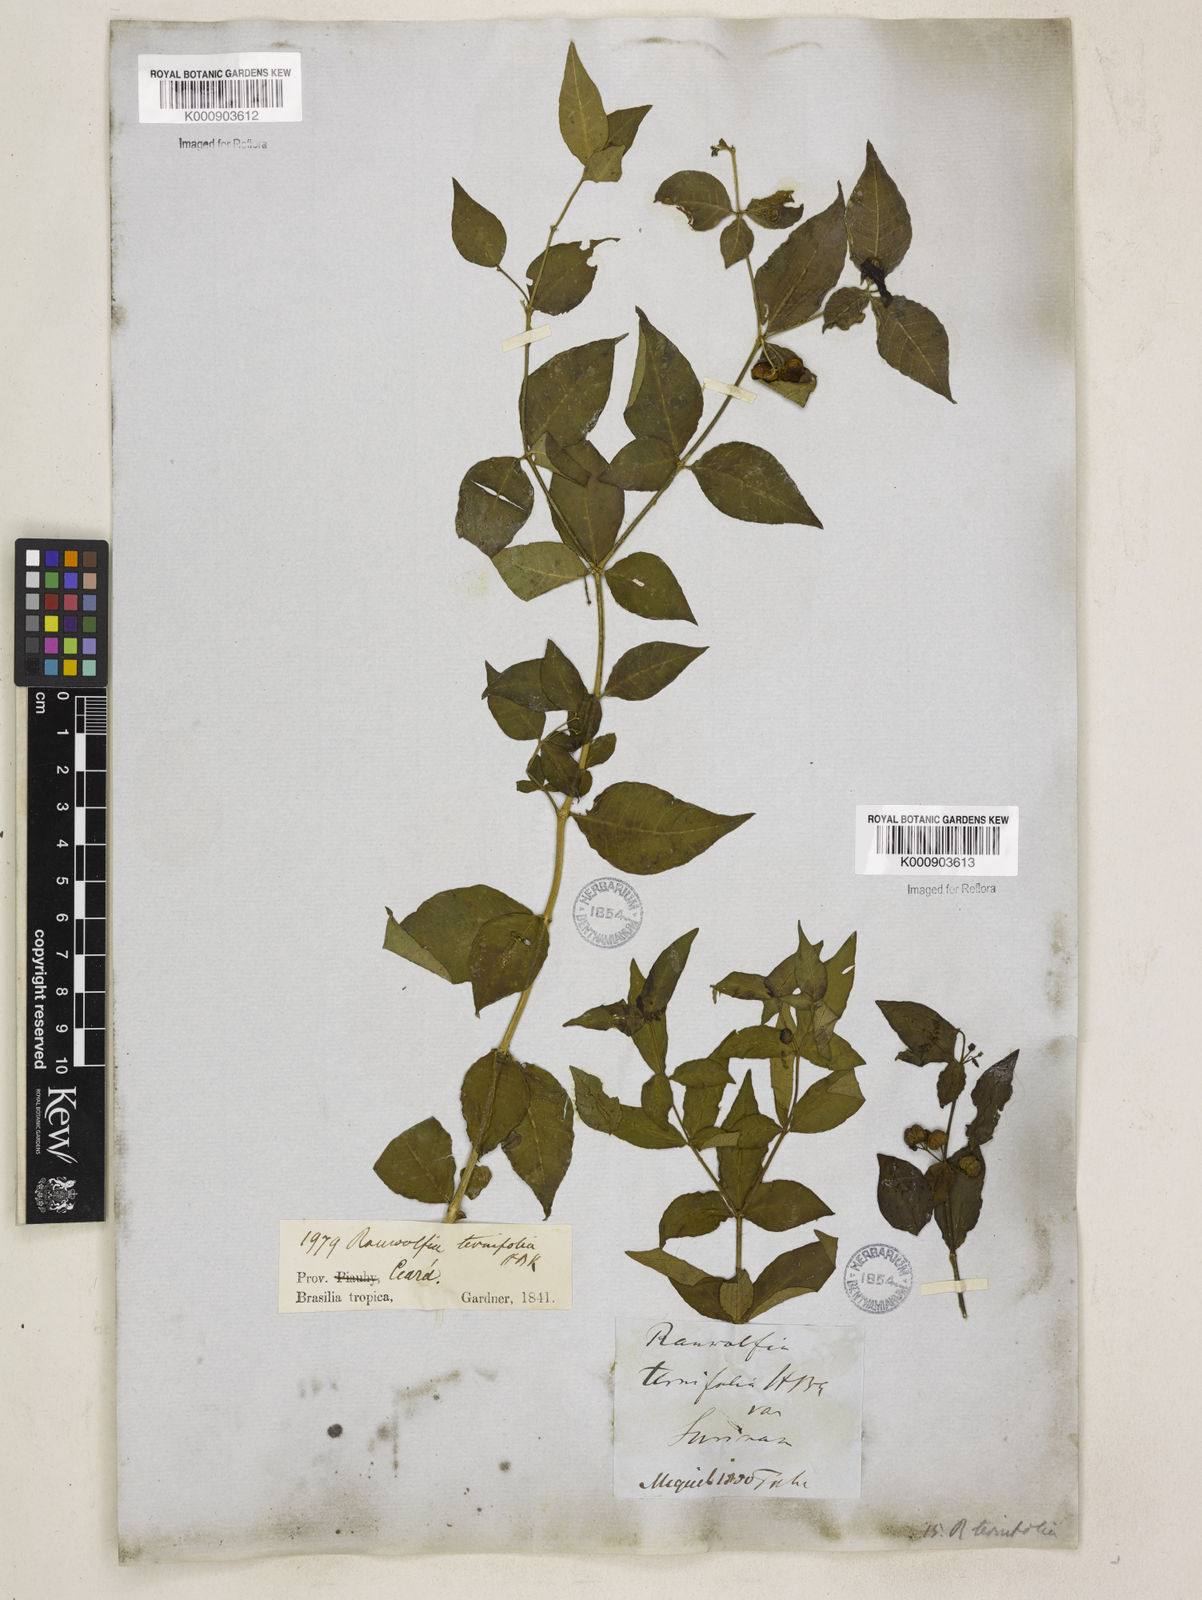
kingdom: Plantae
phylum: Tracheophyta
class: Magnoliopsida
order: Gentianales
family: Apocynaceae
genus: Rauvolfia
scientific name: Rauvolfia
